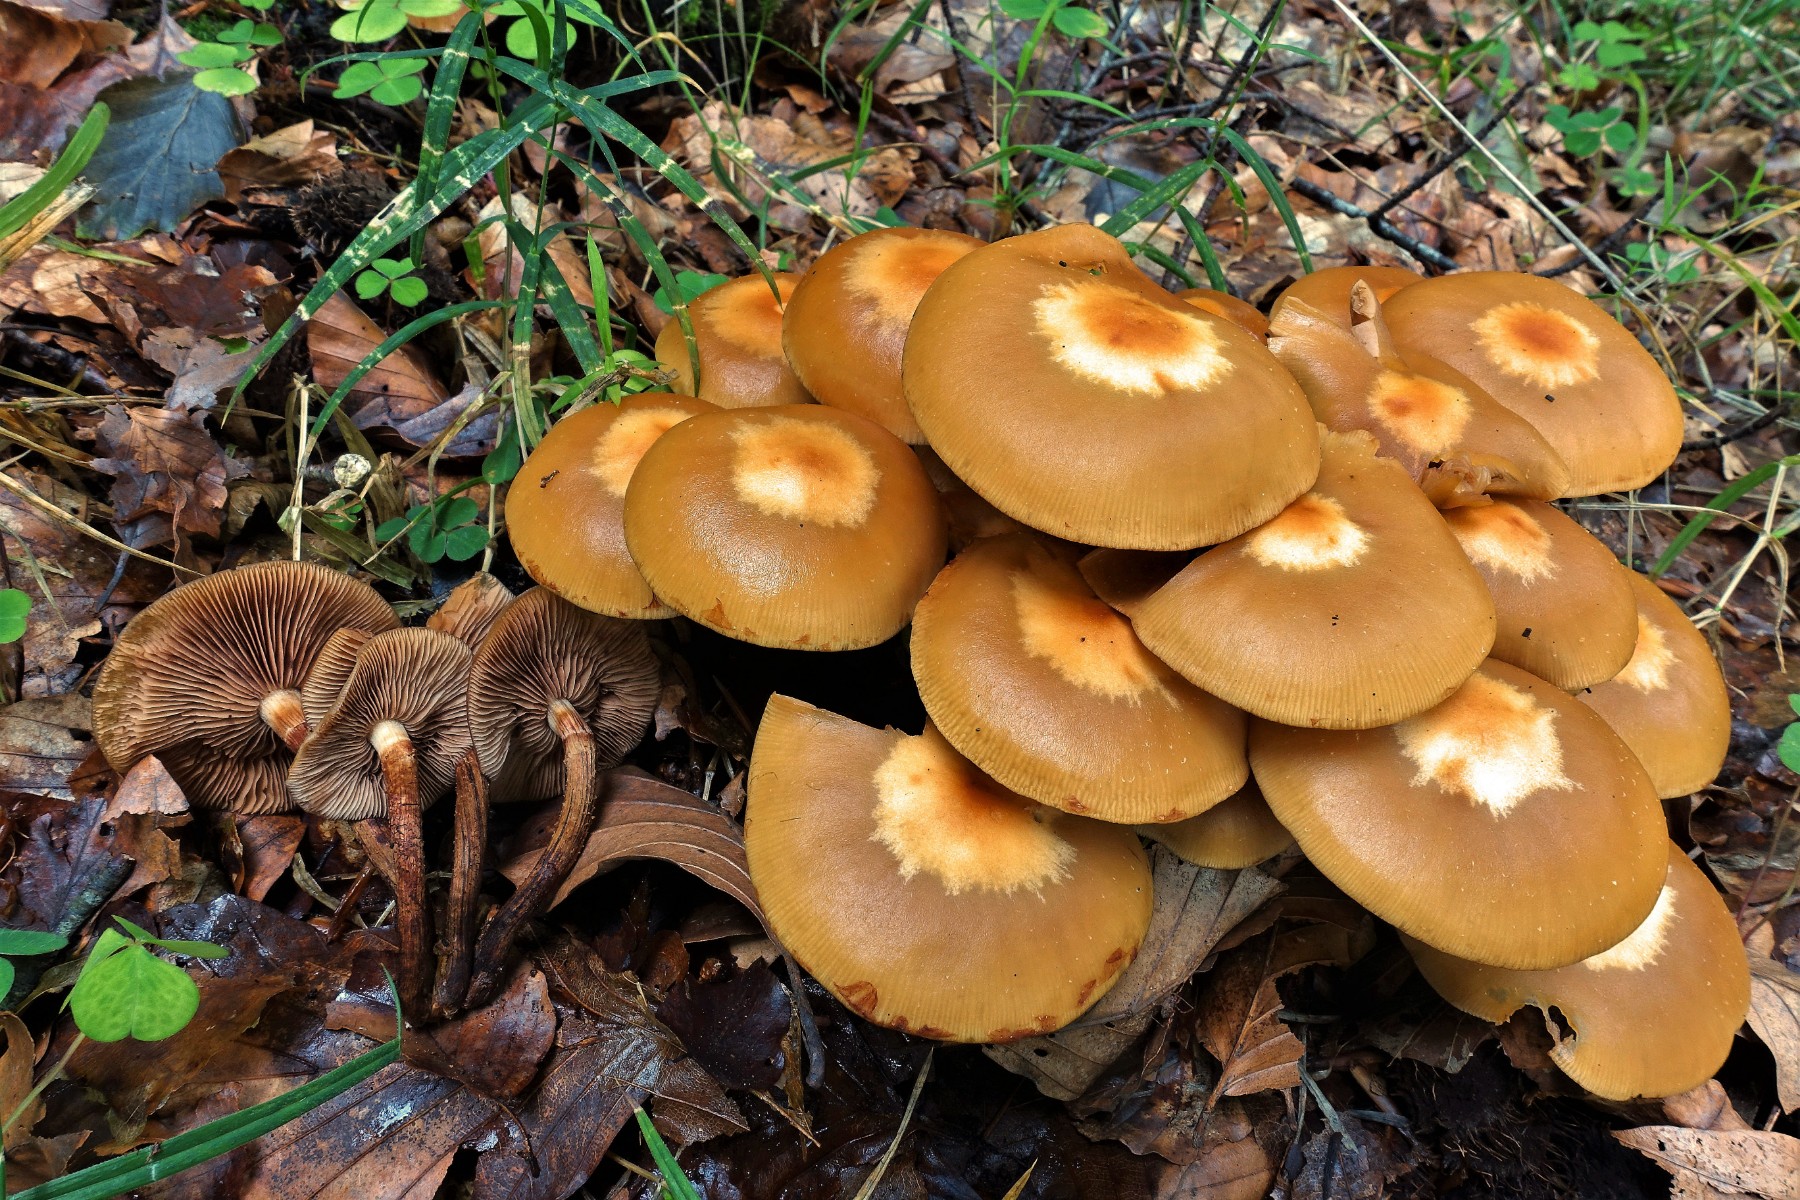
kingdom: Fungi
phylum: Basidiomycota
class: Agaricomycetes
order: Agaricales
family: Strophariaceae
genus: Kuehneromyces
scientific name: Kuehneromyces mutabilis
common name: foranderlig skælhat
